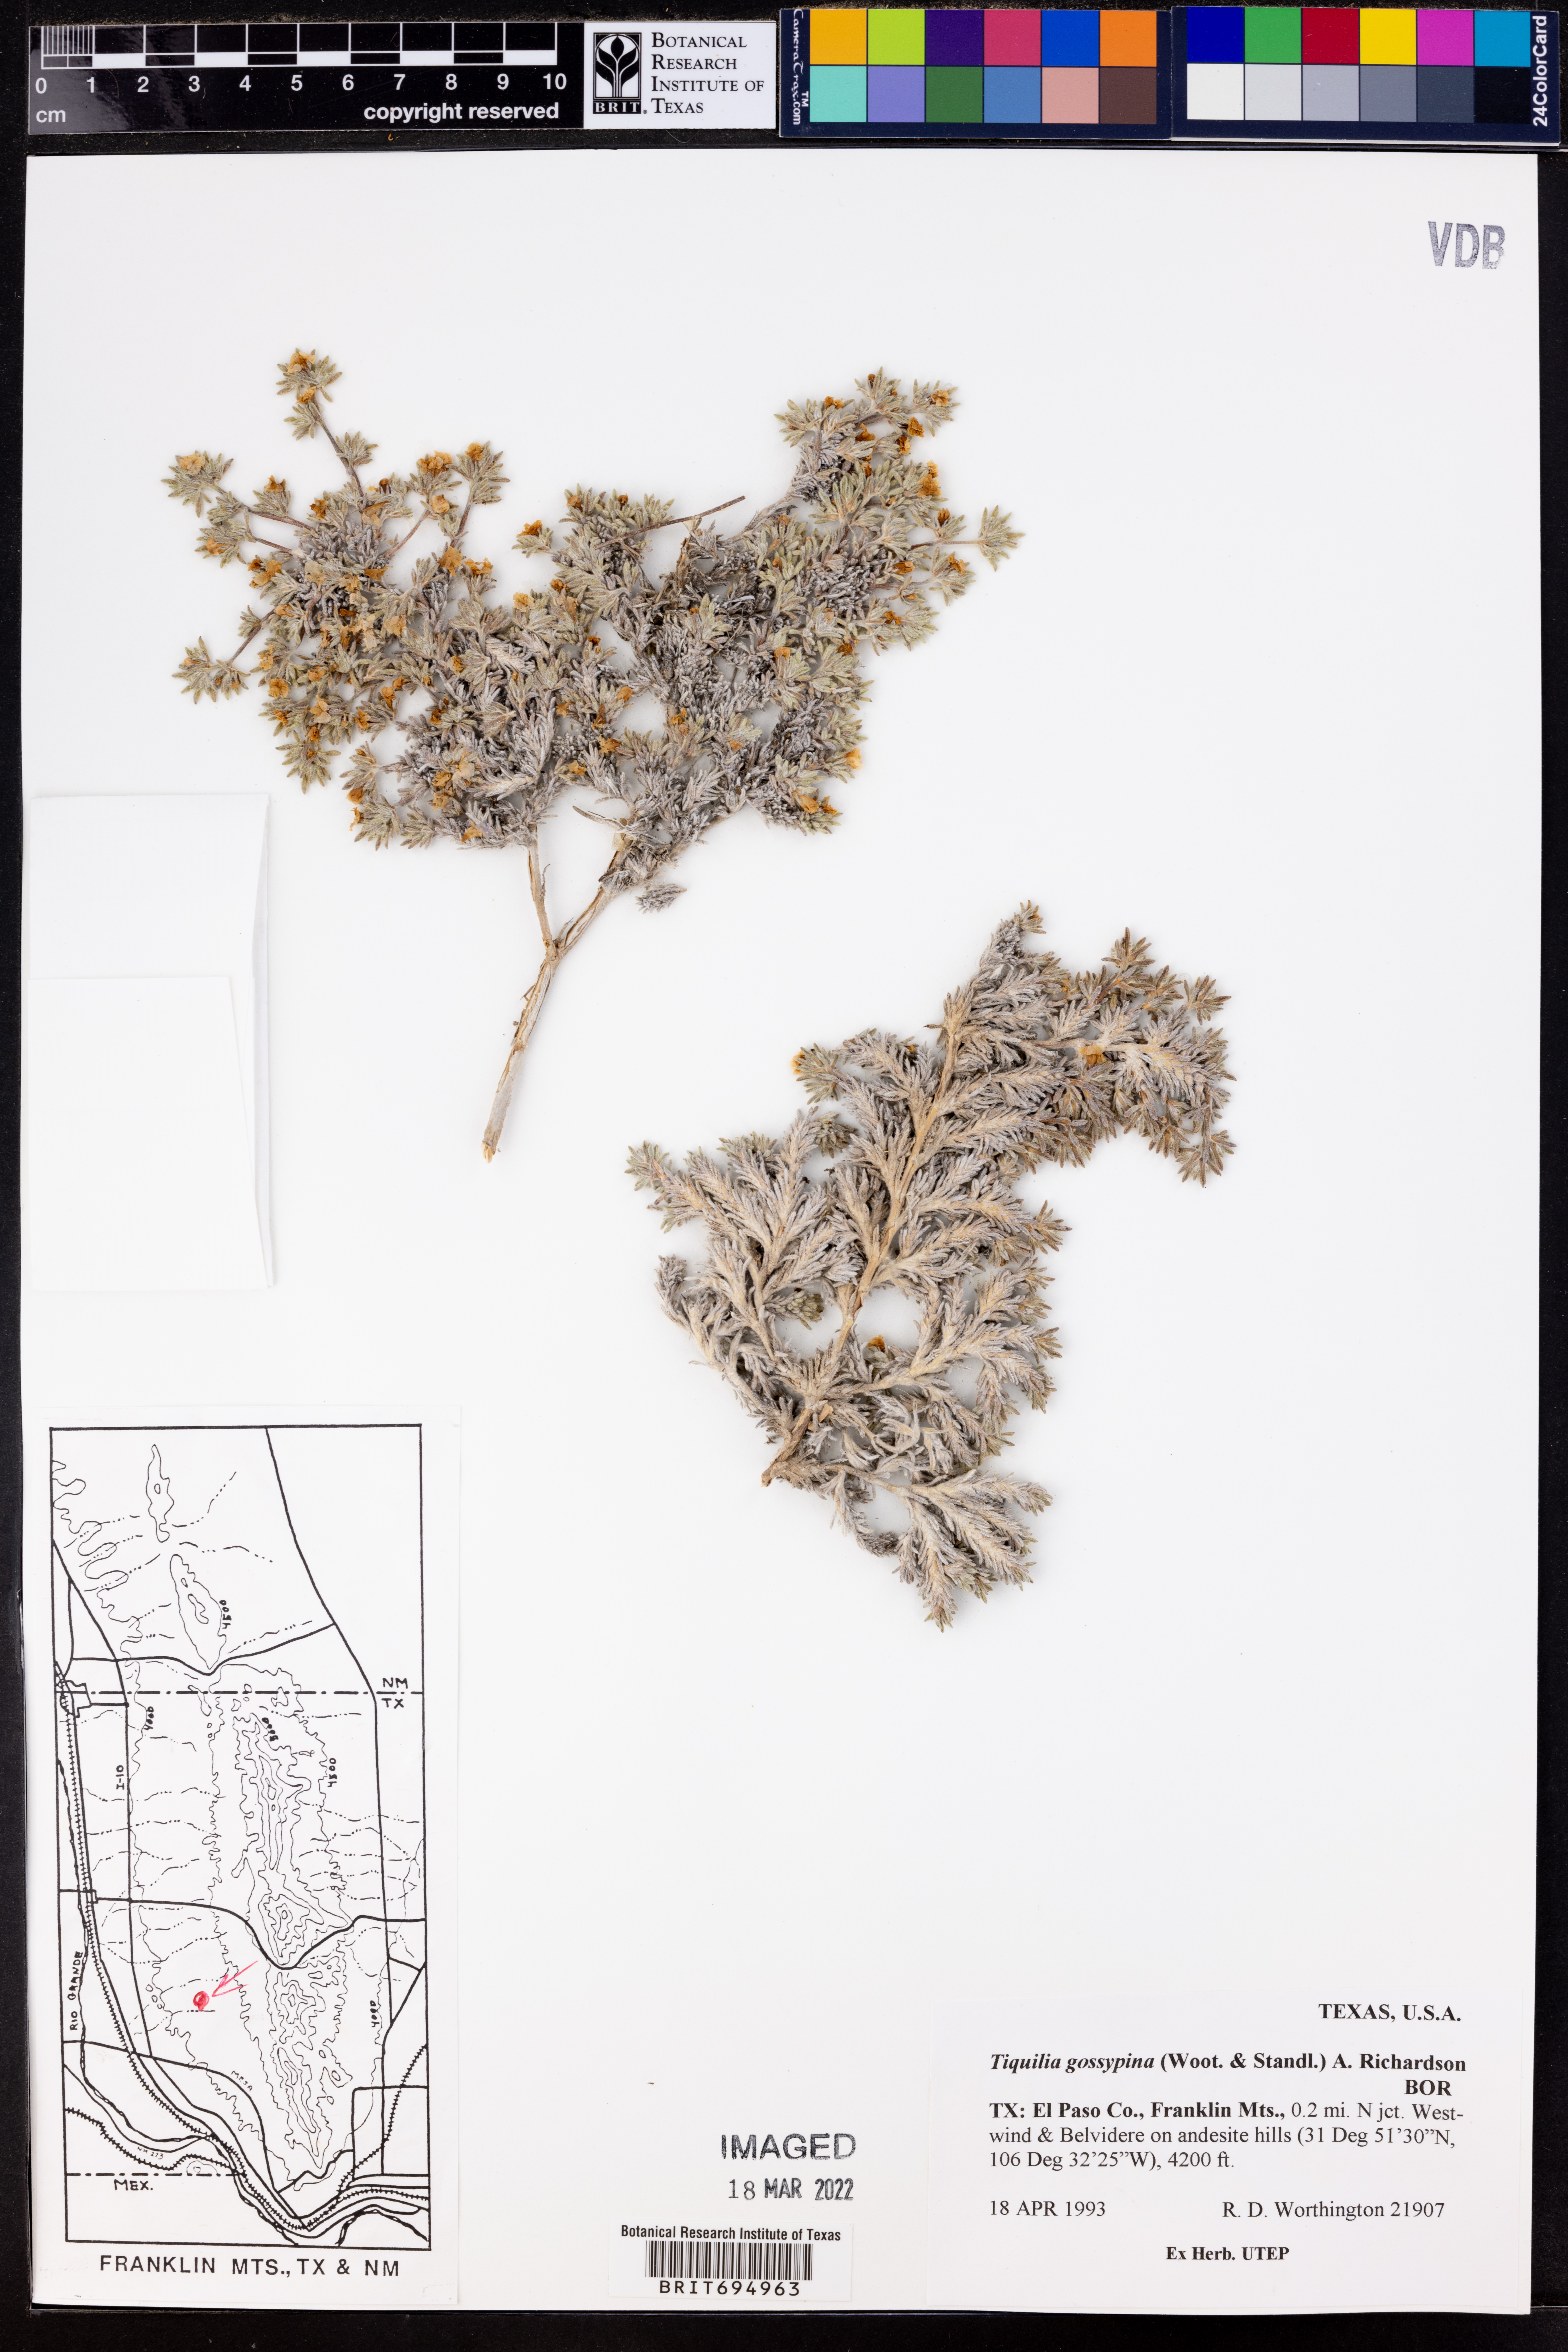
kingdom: Plantae
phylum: Tracheophyta
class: Magnoliopsida
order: Boraginales
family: Ehretiaceae
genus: Tiquilia
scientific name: Tiquilia gossypina
